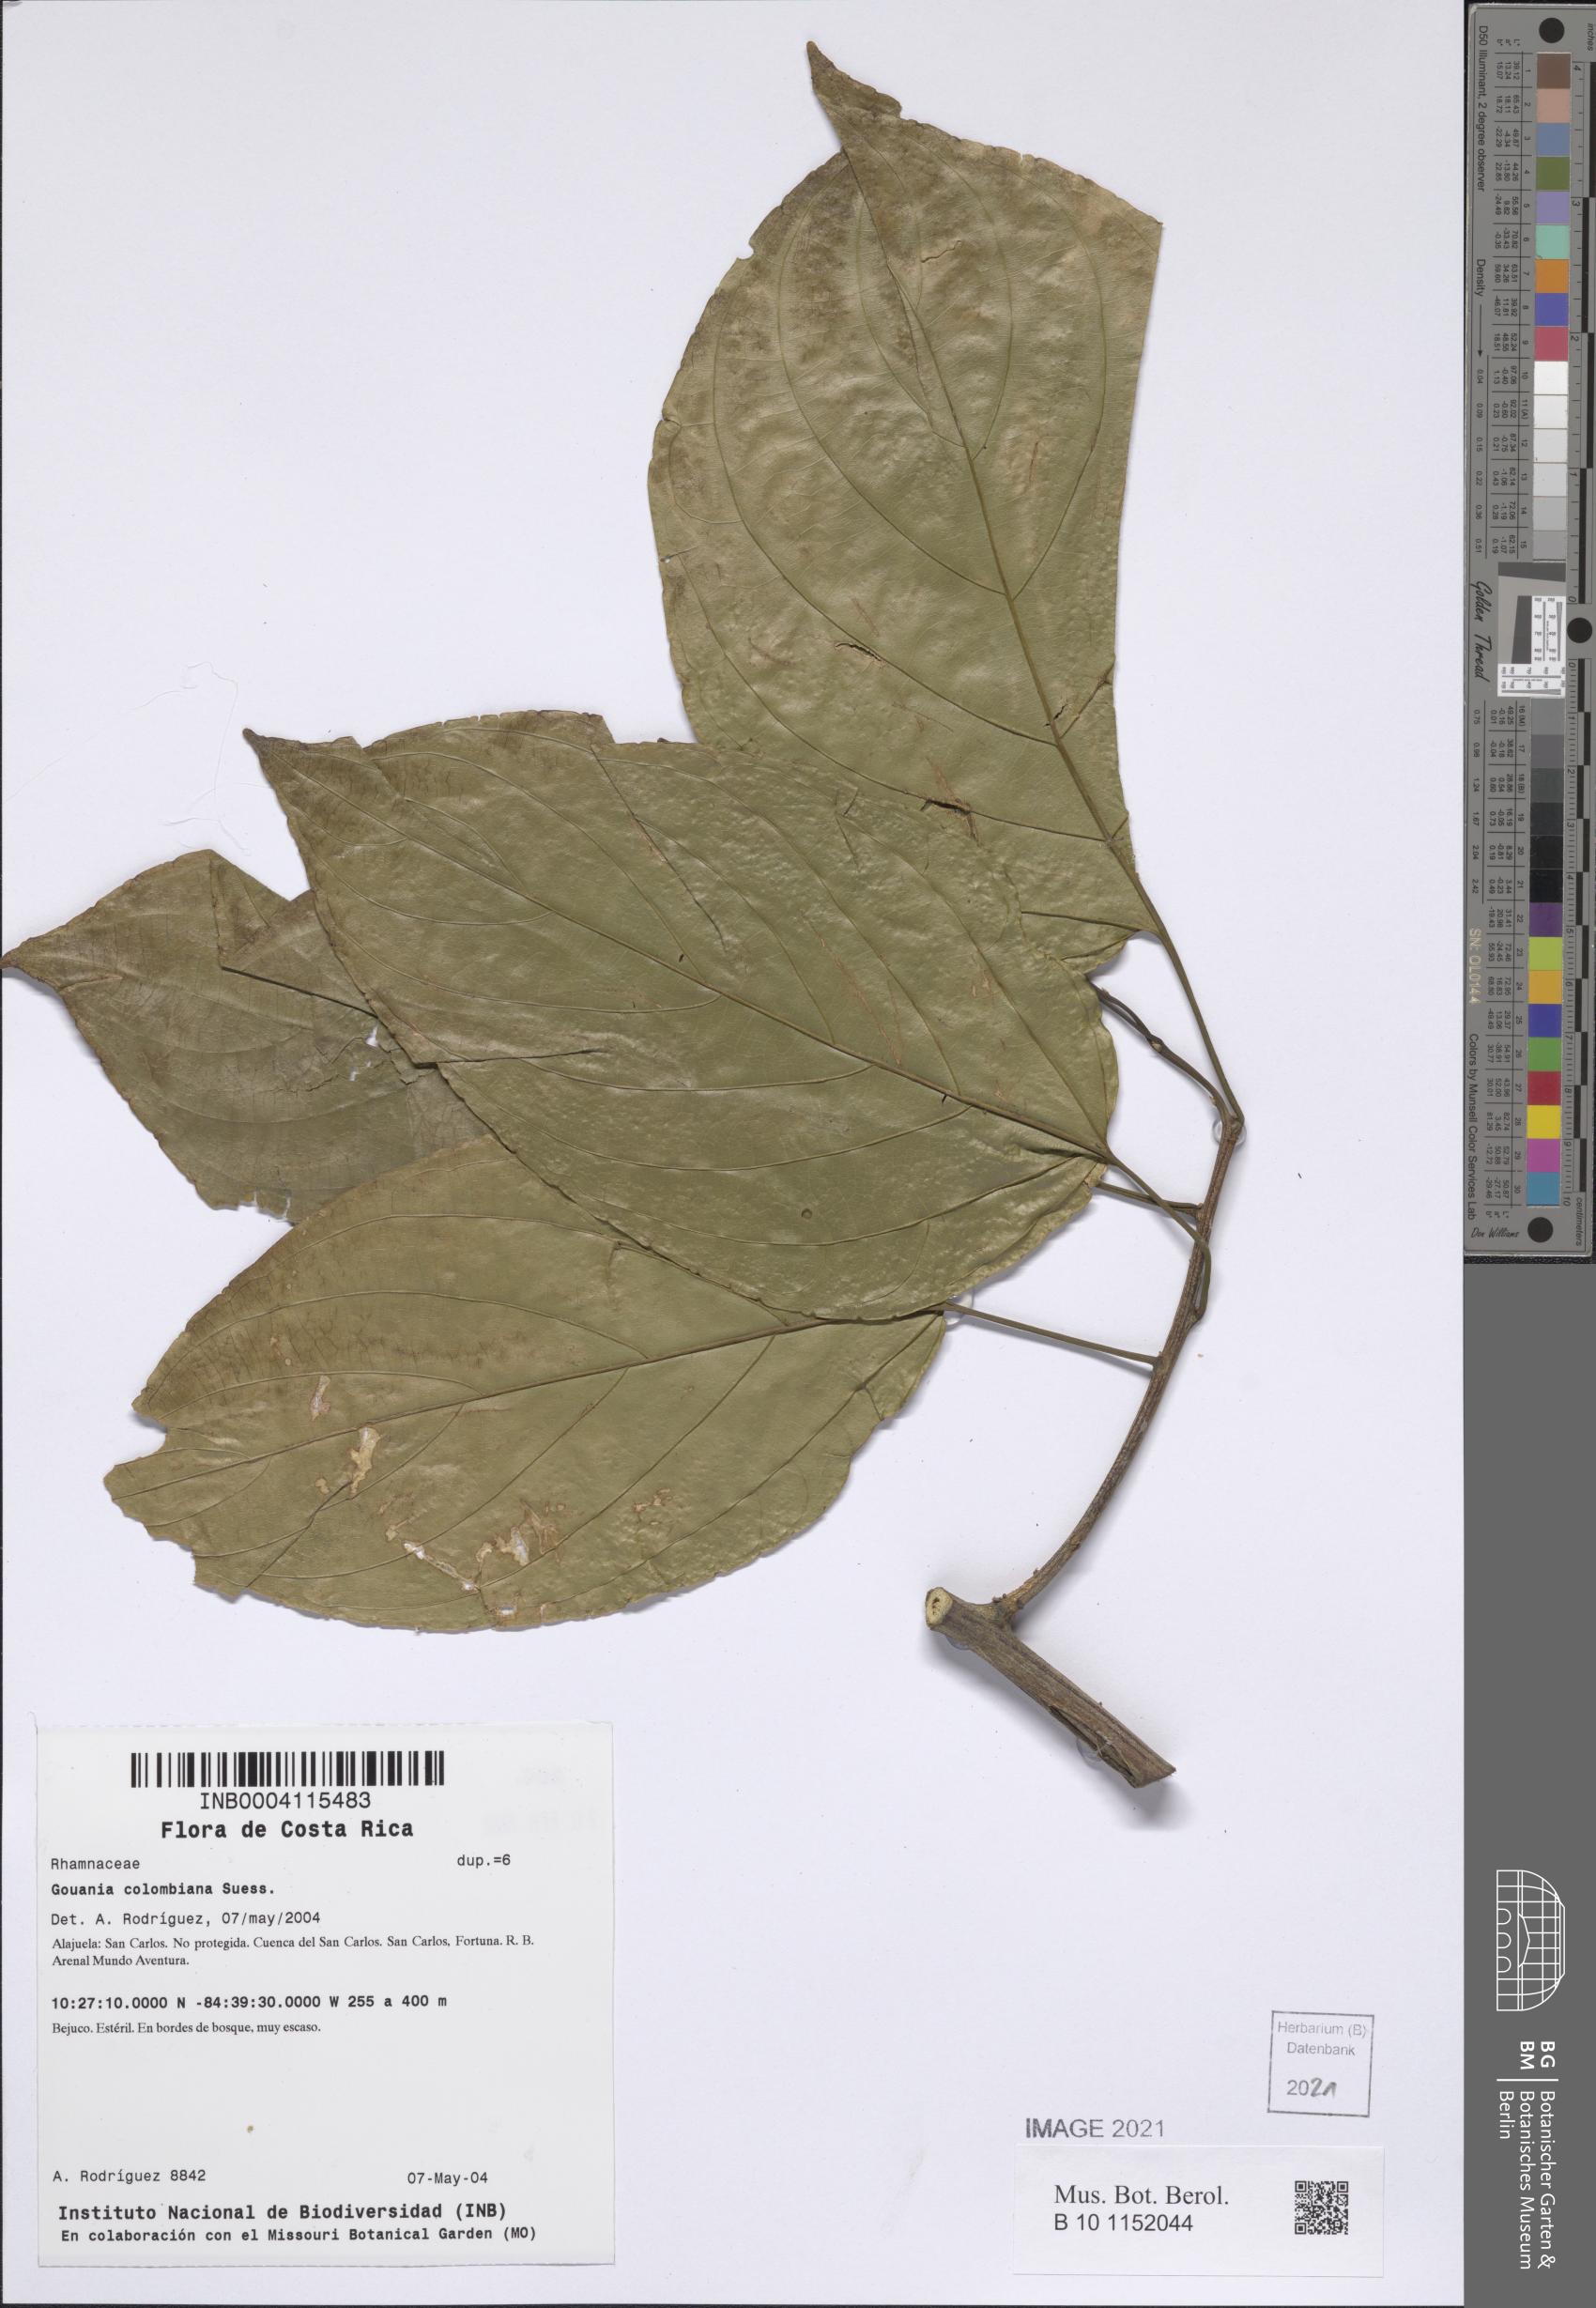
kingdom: Plantae
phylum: Tracheophyta
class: Magnoliopsida
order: Rosales
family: Rhamnaceae
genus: Gouania
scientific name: Gouania colombiana
